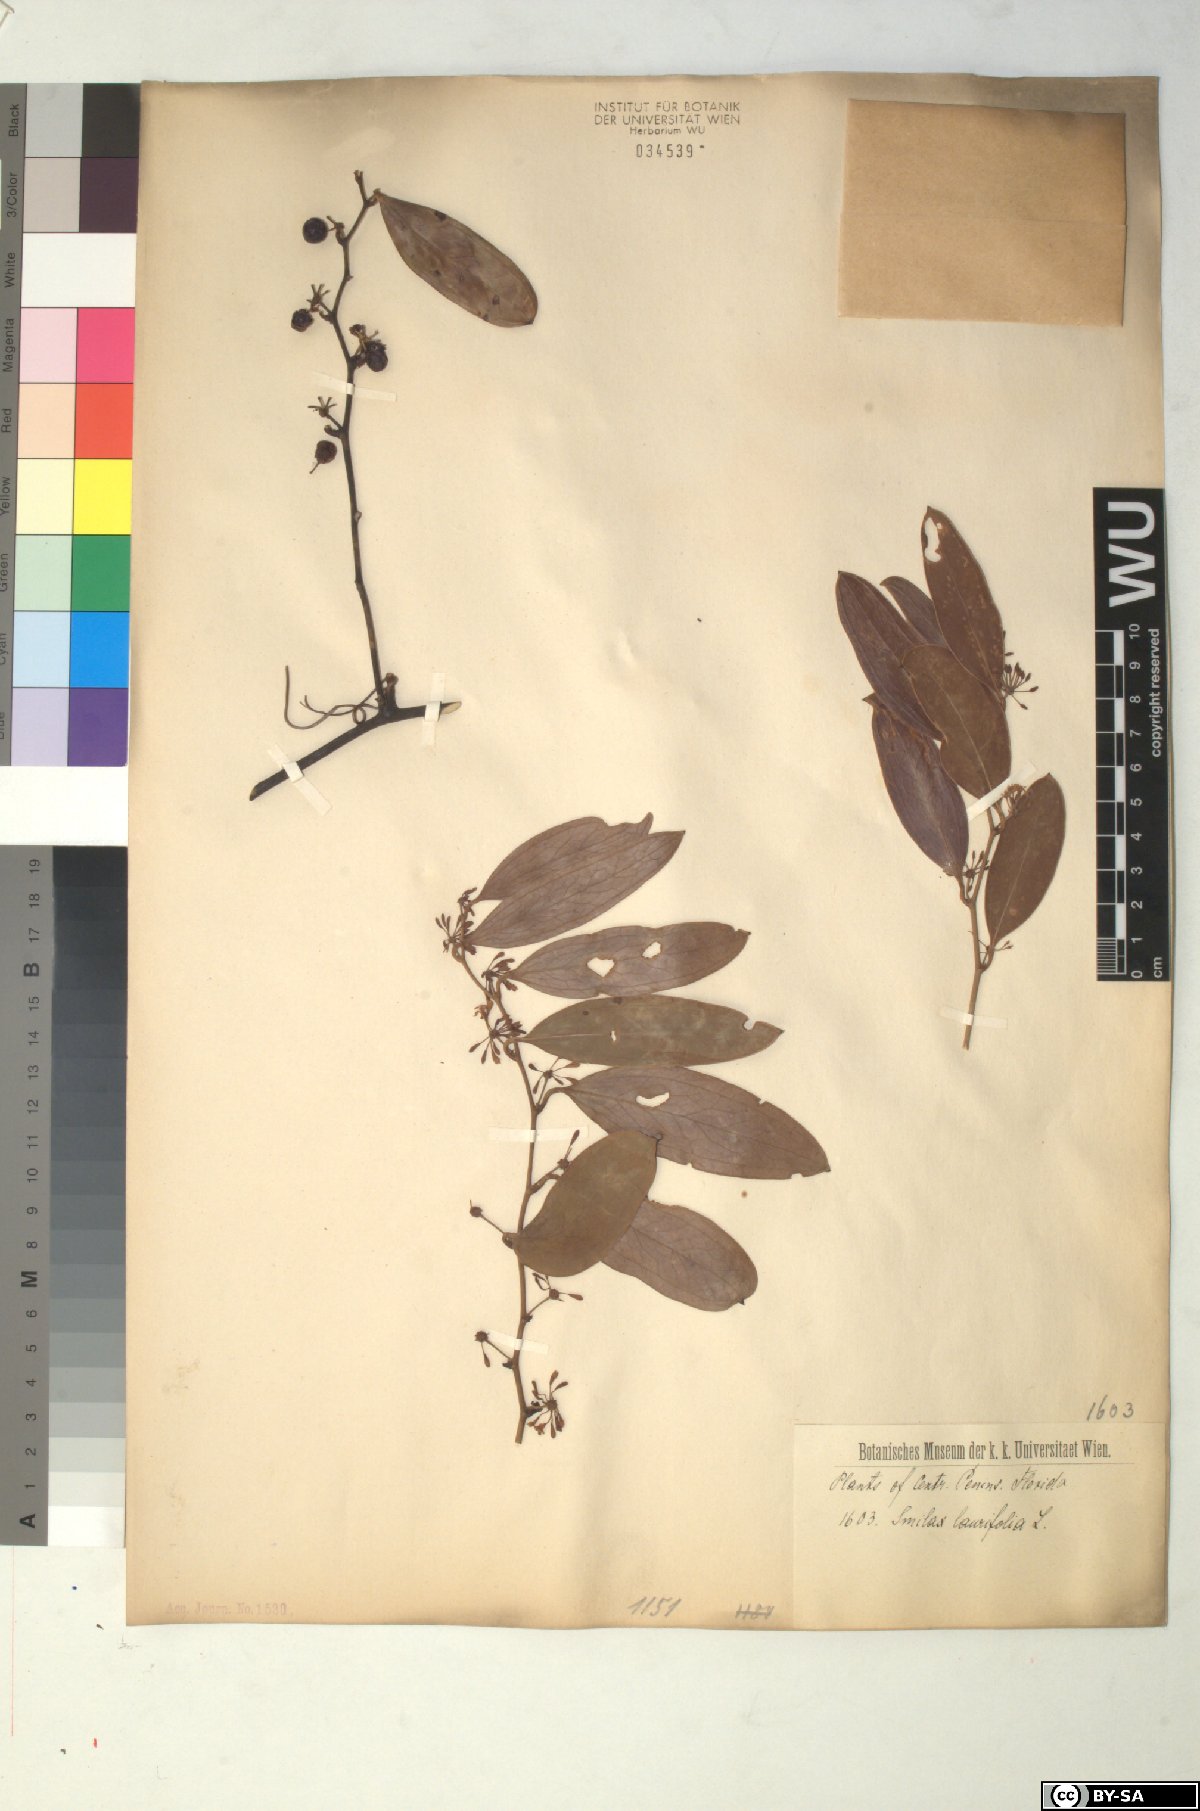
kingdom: Plantae
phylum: Tracheophyta
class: Liliopsida
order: Liliales
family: Smilacaceae
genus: Smilax
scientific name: Smilax laurifolia
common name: Bamboovine
